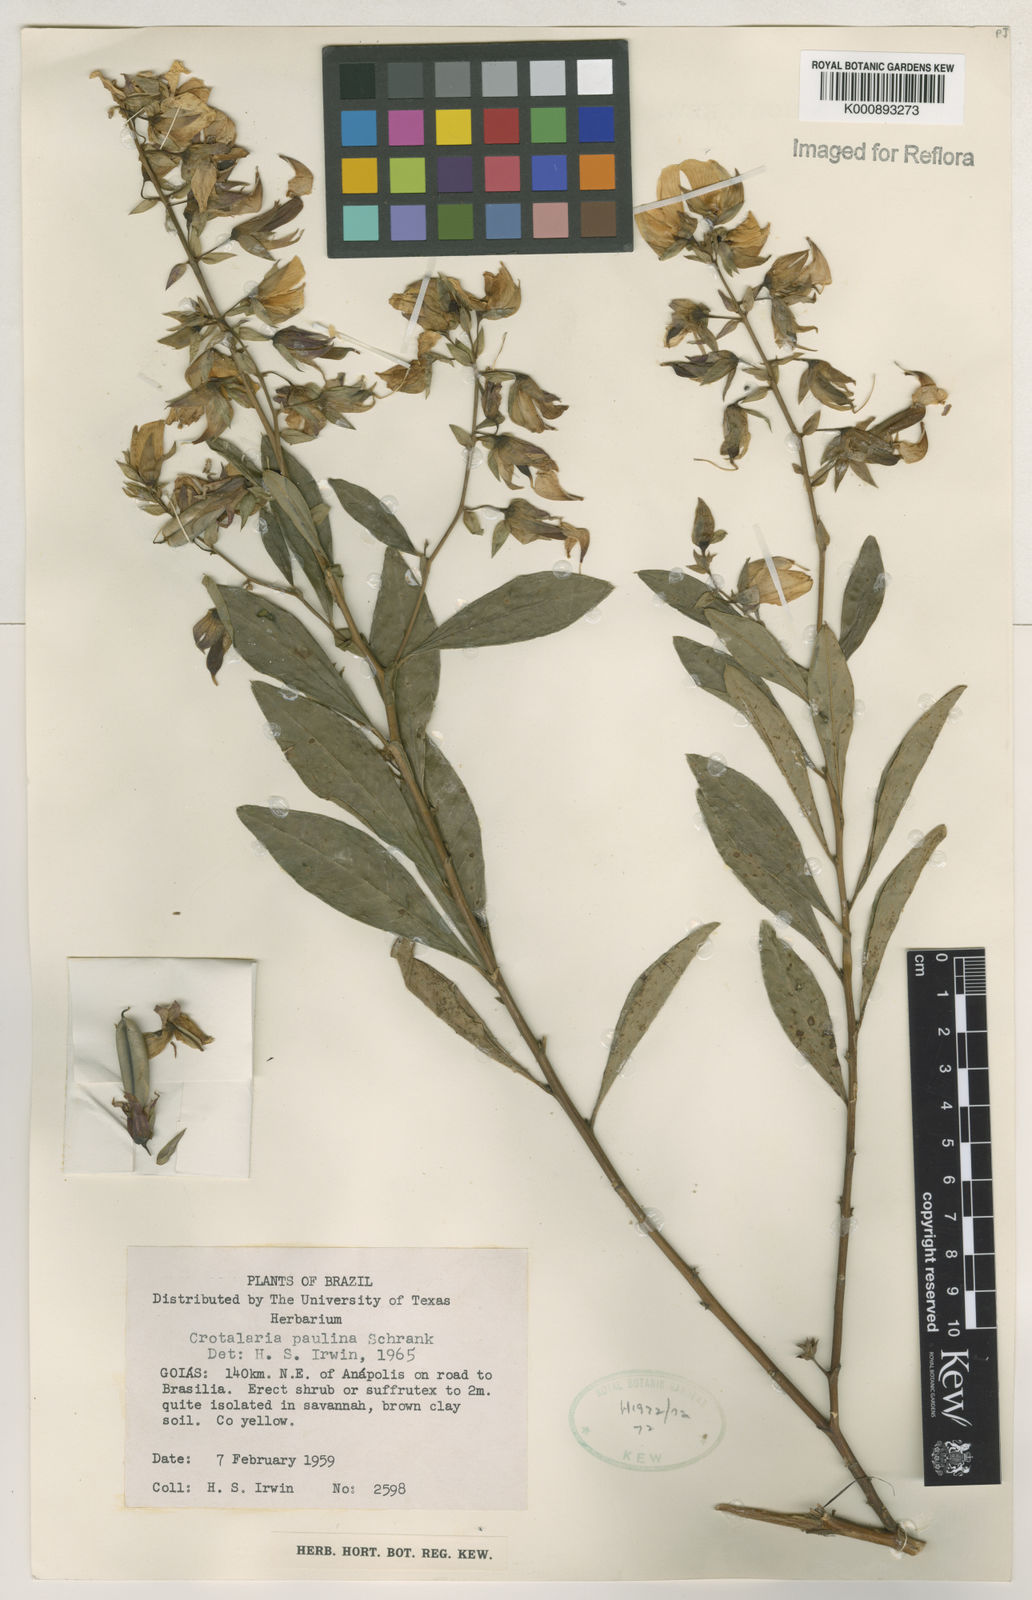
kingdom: Plantae
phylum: Tracheophyta
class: Magnoliopsida
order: Fabales
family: Fabaceae
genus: Crotalaria
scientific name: Crotalaria paulina
